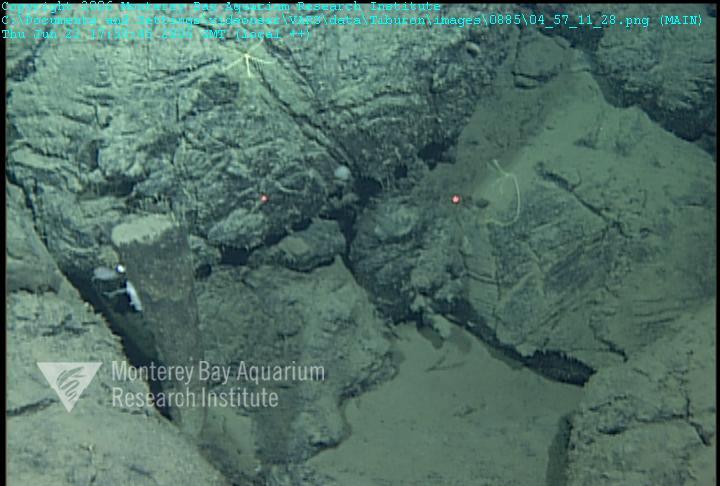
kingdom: Animalia
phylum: Porifera
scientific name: Porifera
